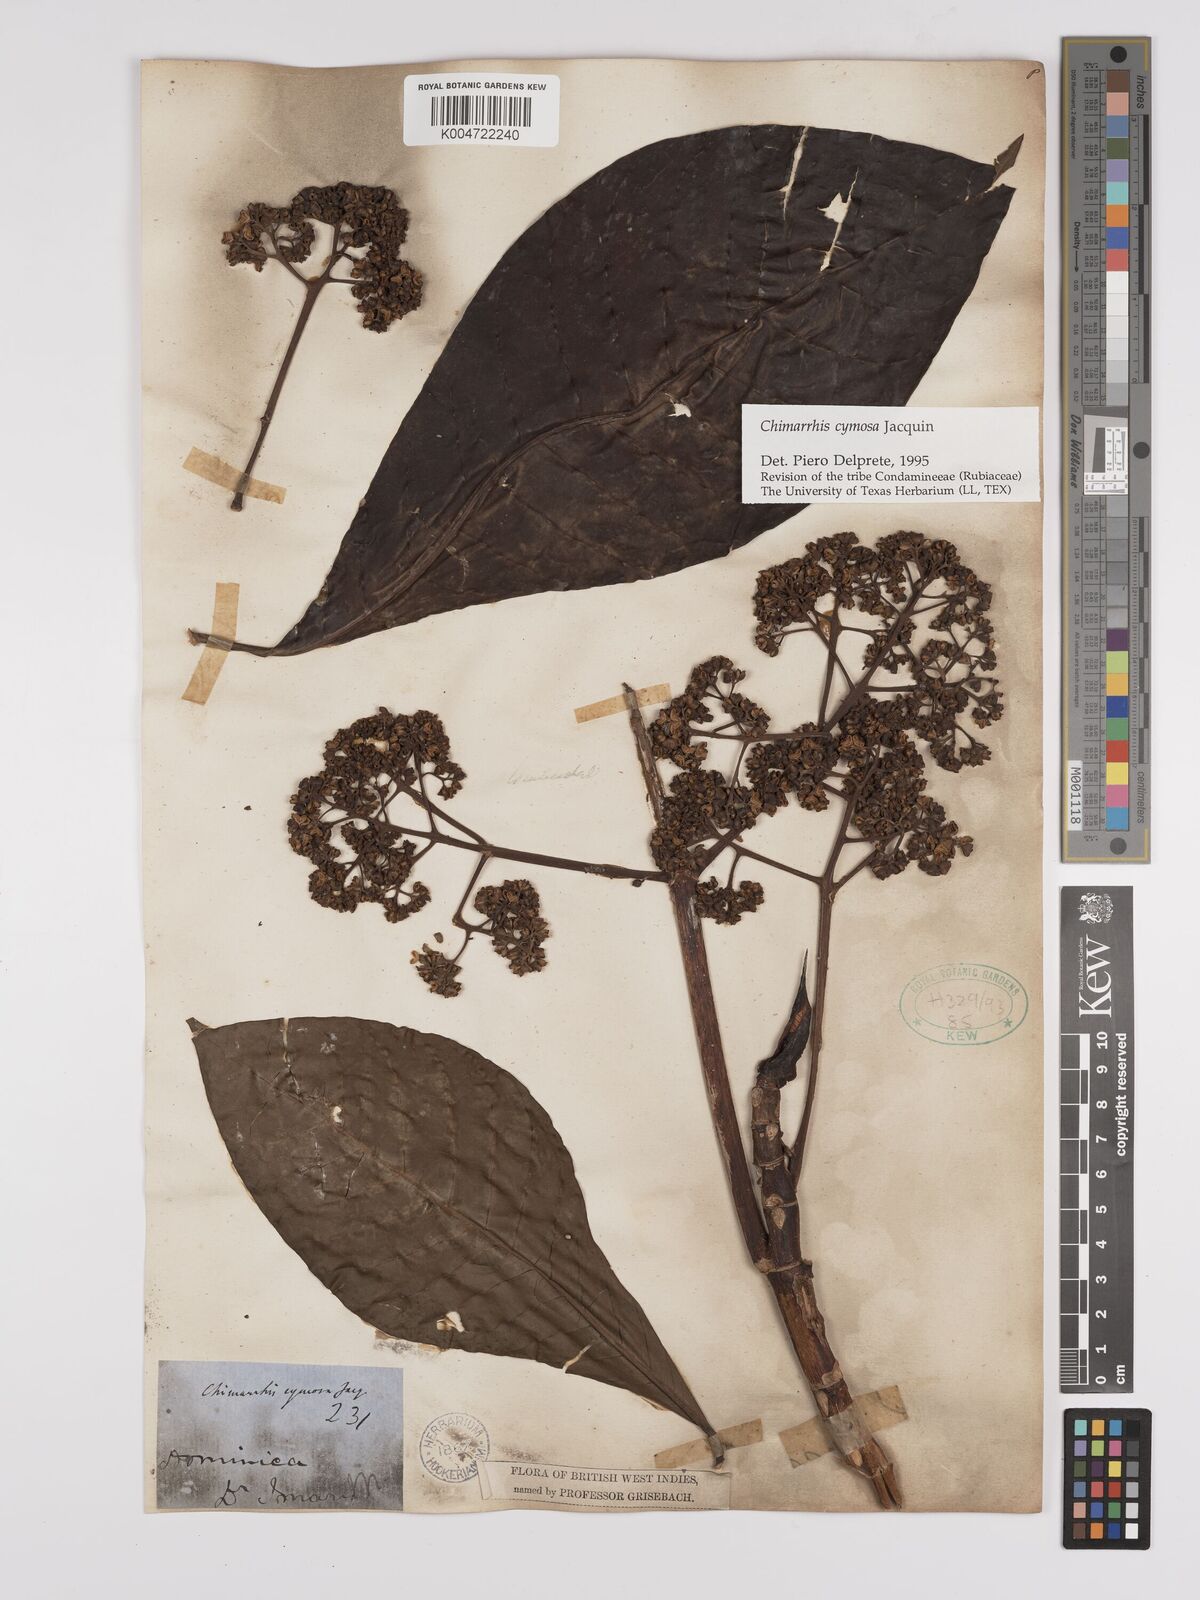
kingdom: Plantae
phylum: Tracheophyta
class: Magnoliopsida
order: Gentianales
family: Rubiaceae
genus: Chimarrhis
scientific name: Chimarrhis cymosa
